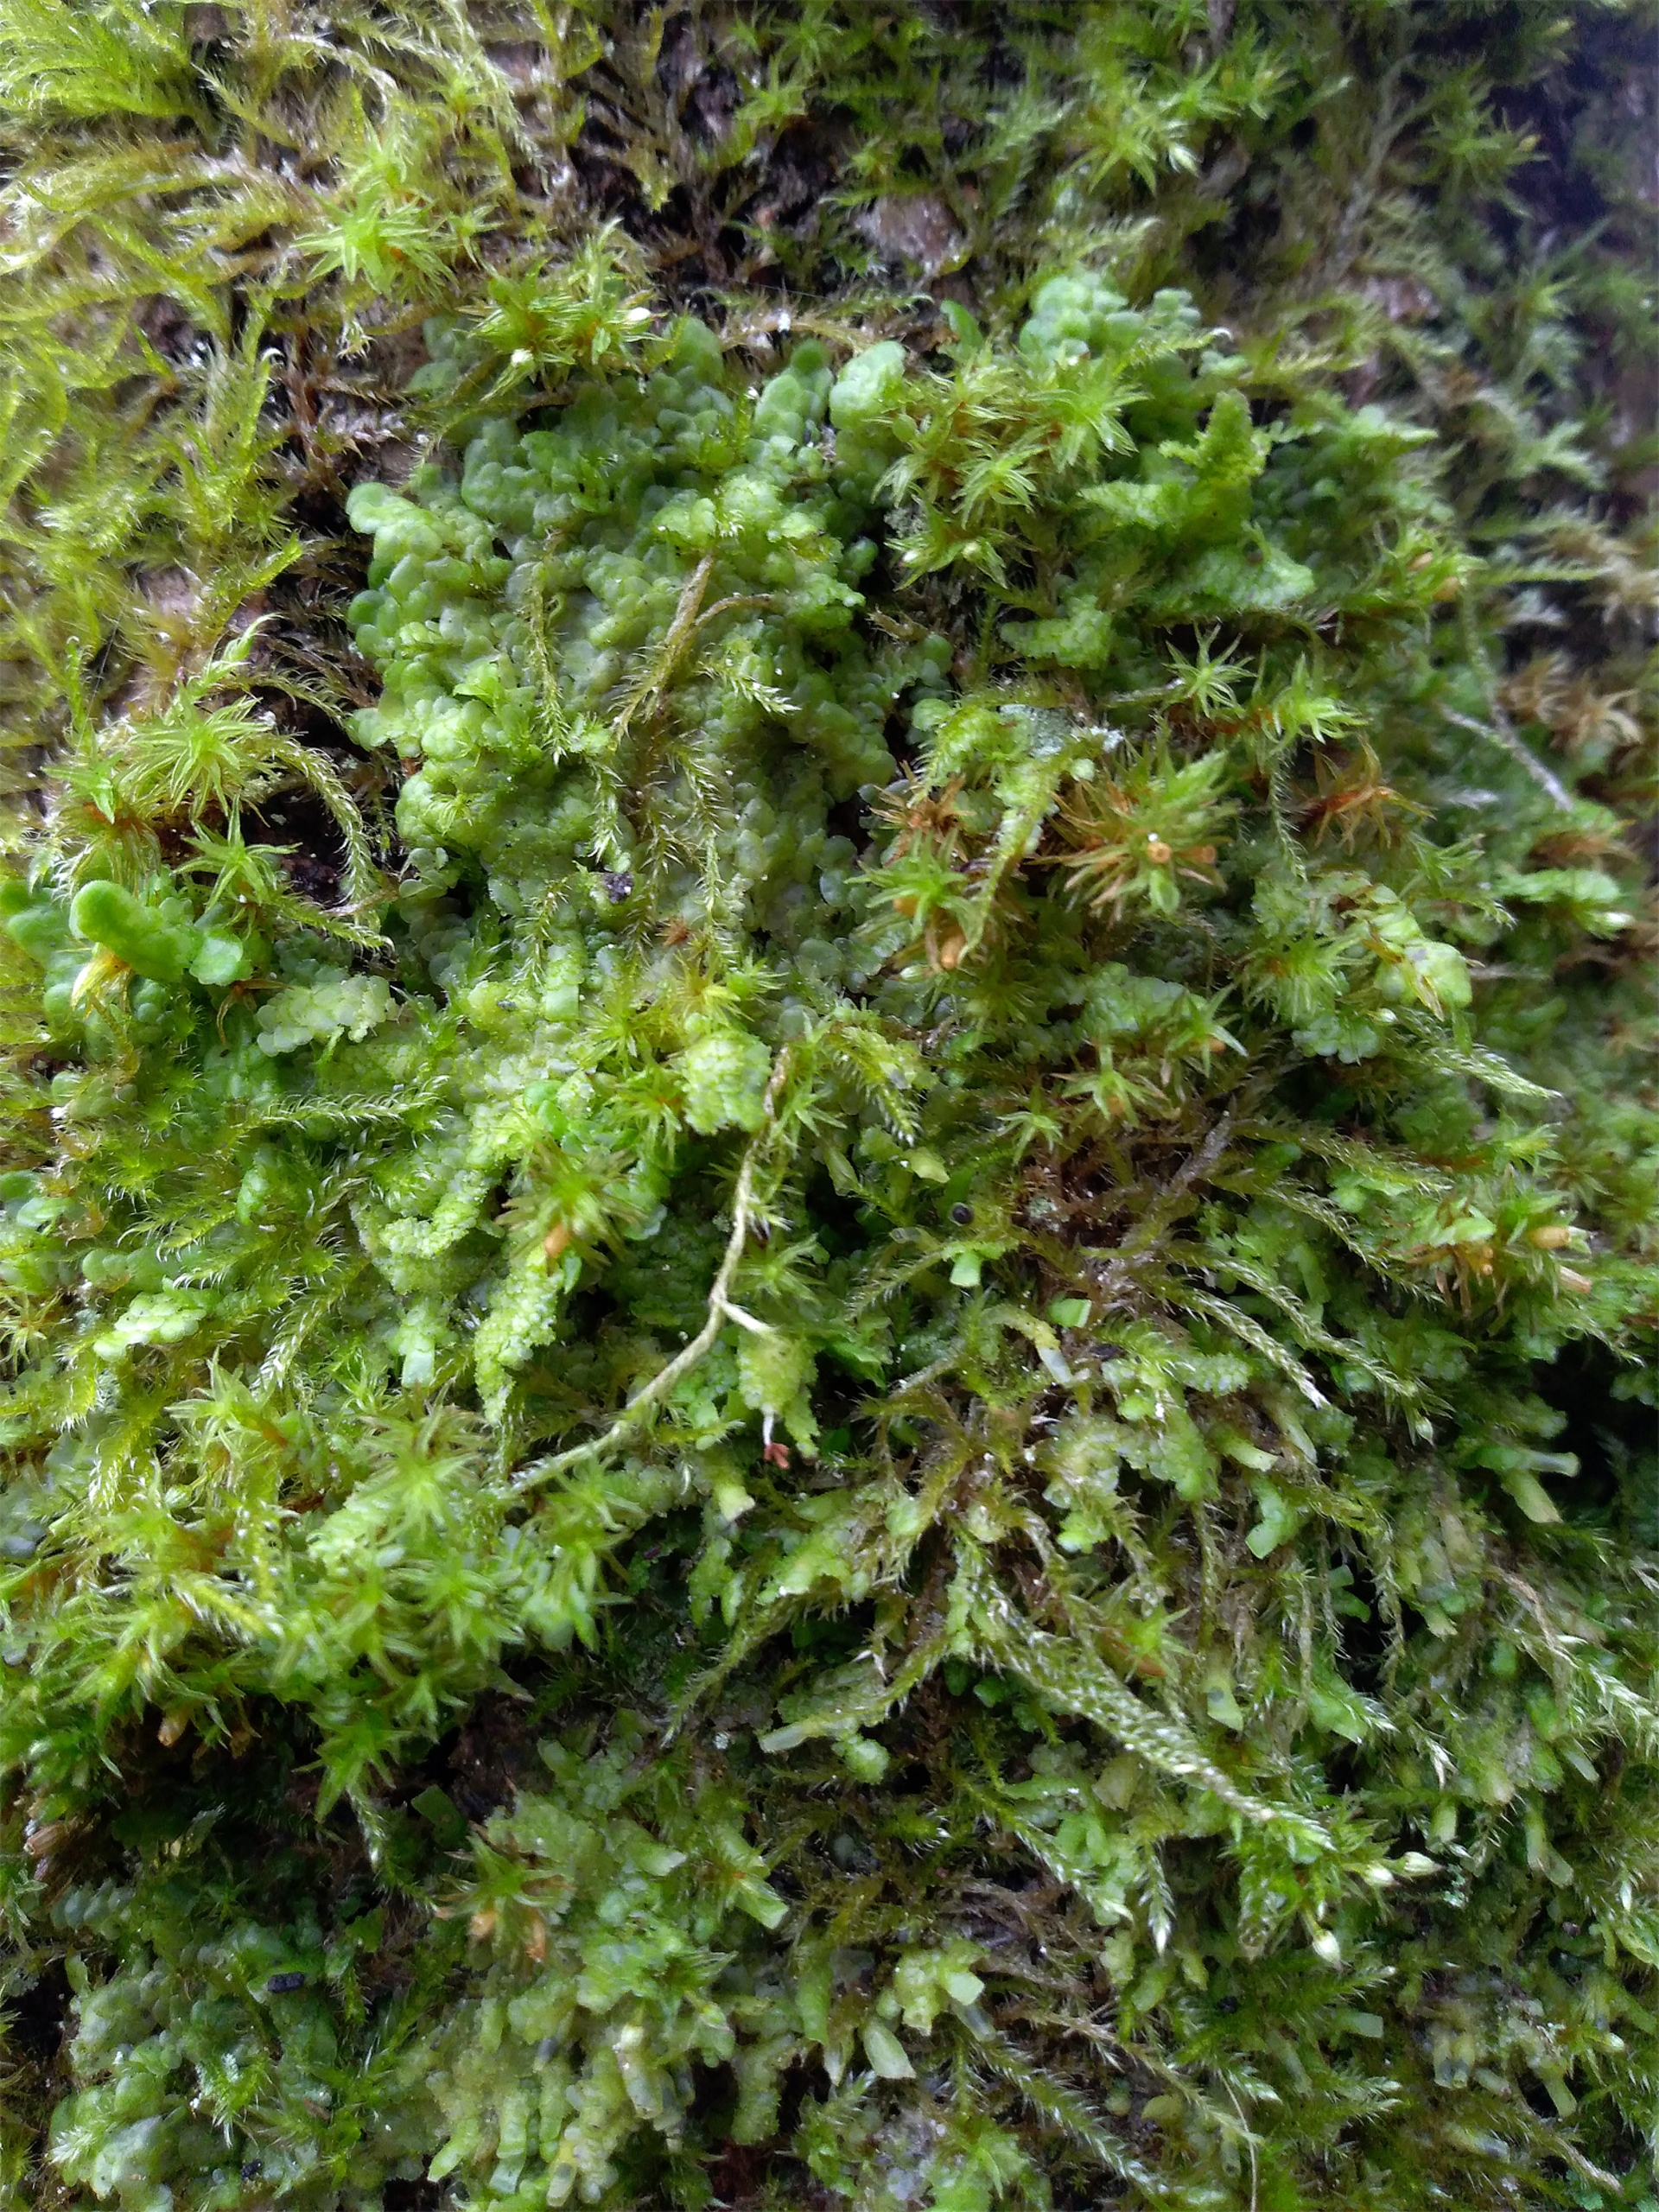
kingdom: Plantae
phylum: Marchantiophyta
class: Jungermanniopsida
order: Porellales
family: Radulaceae
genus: Radula
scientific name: Radula complanata
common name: Almindelig spartelmos
